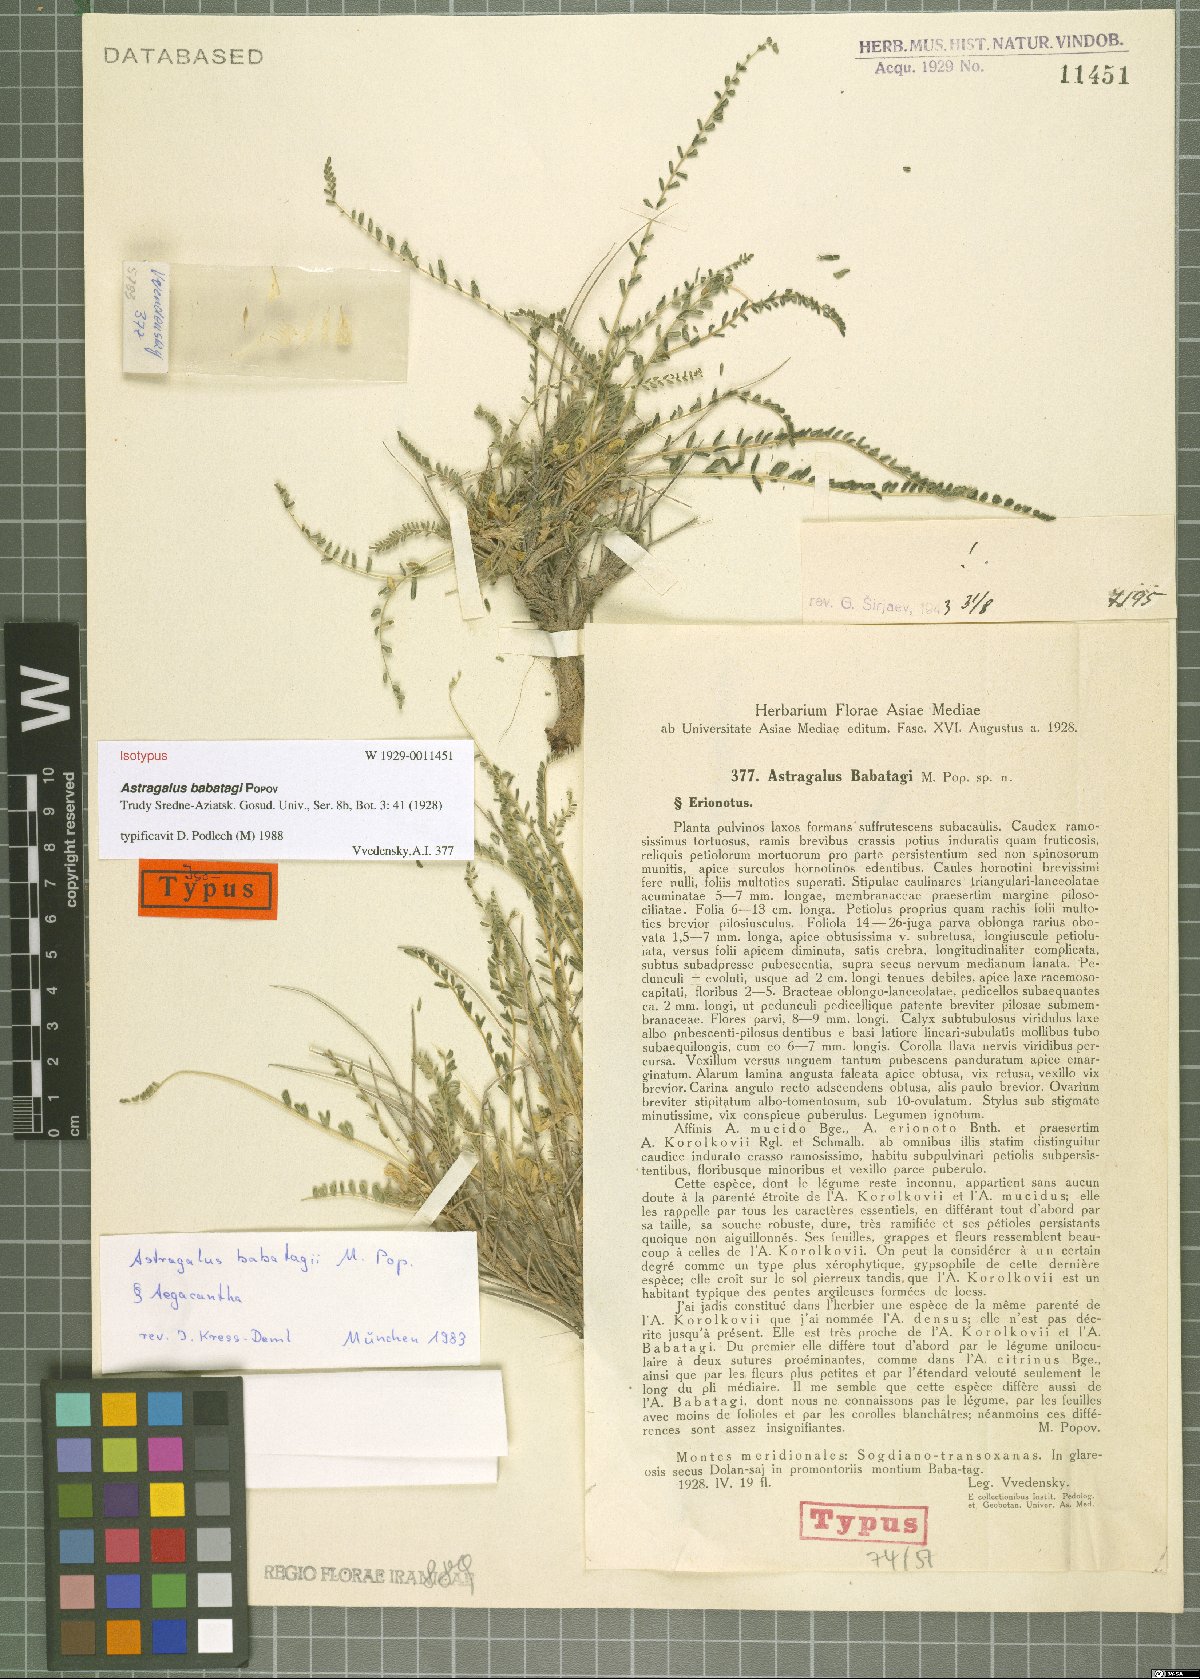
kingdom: Plantae
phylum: Tracheophyta
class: Magnoliopsida
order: Fabales
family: Fabaceae
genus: Astragalus
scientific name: Astragalus babatagi
